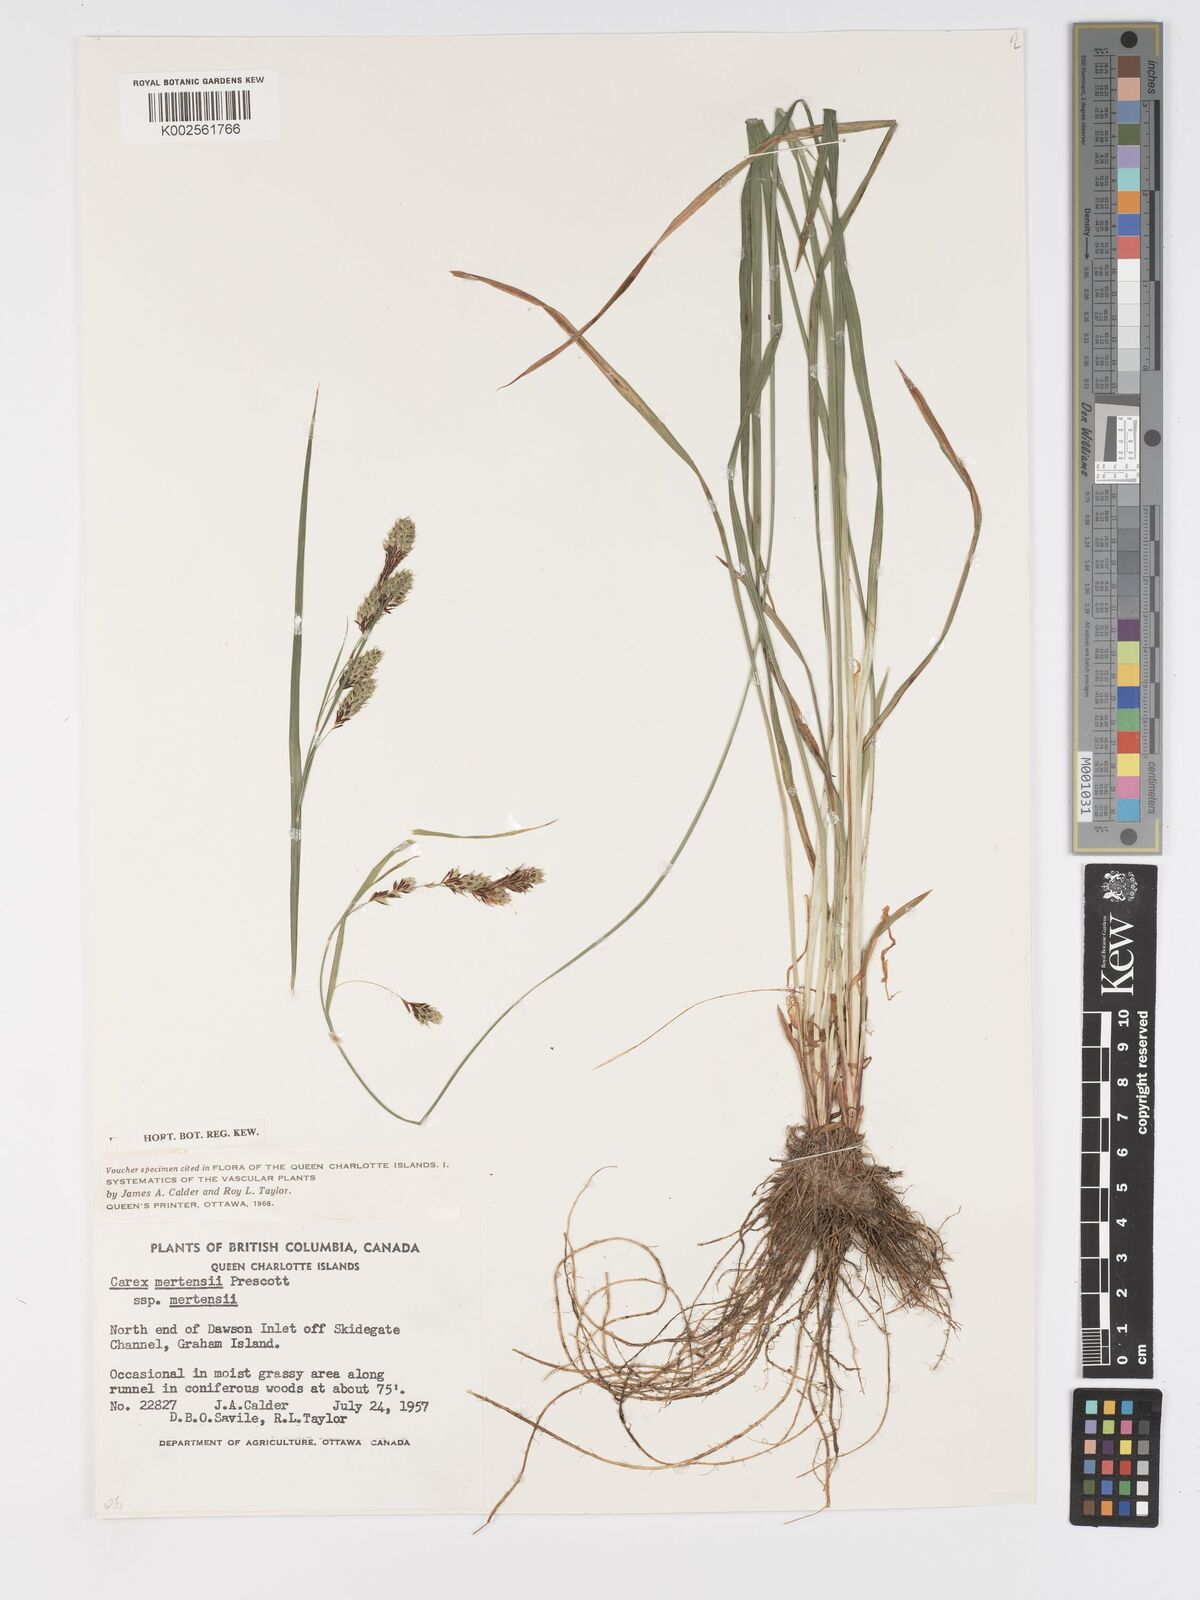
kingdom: Plantae
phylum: Tracheophyta
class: Liliopsida
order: Poales
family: Cyperaceae
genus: Carex
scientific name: Carex mertensii
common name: Mertens' sedge
